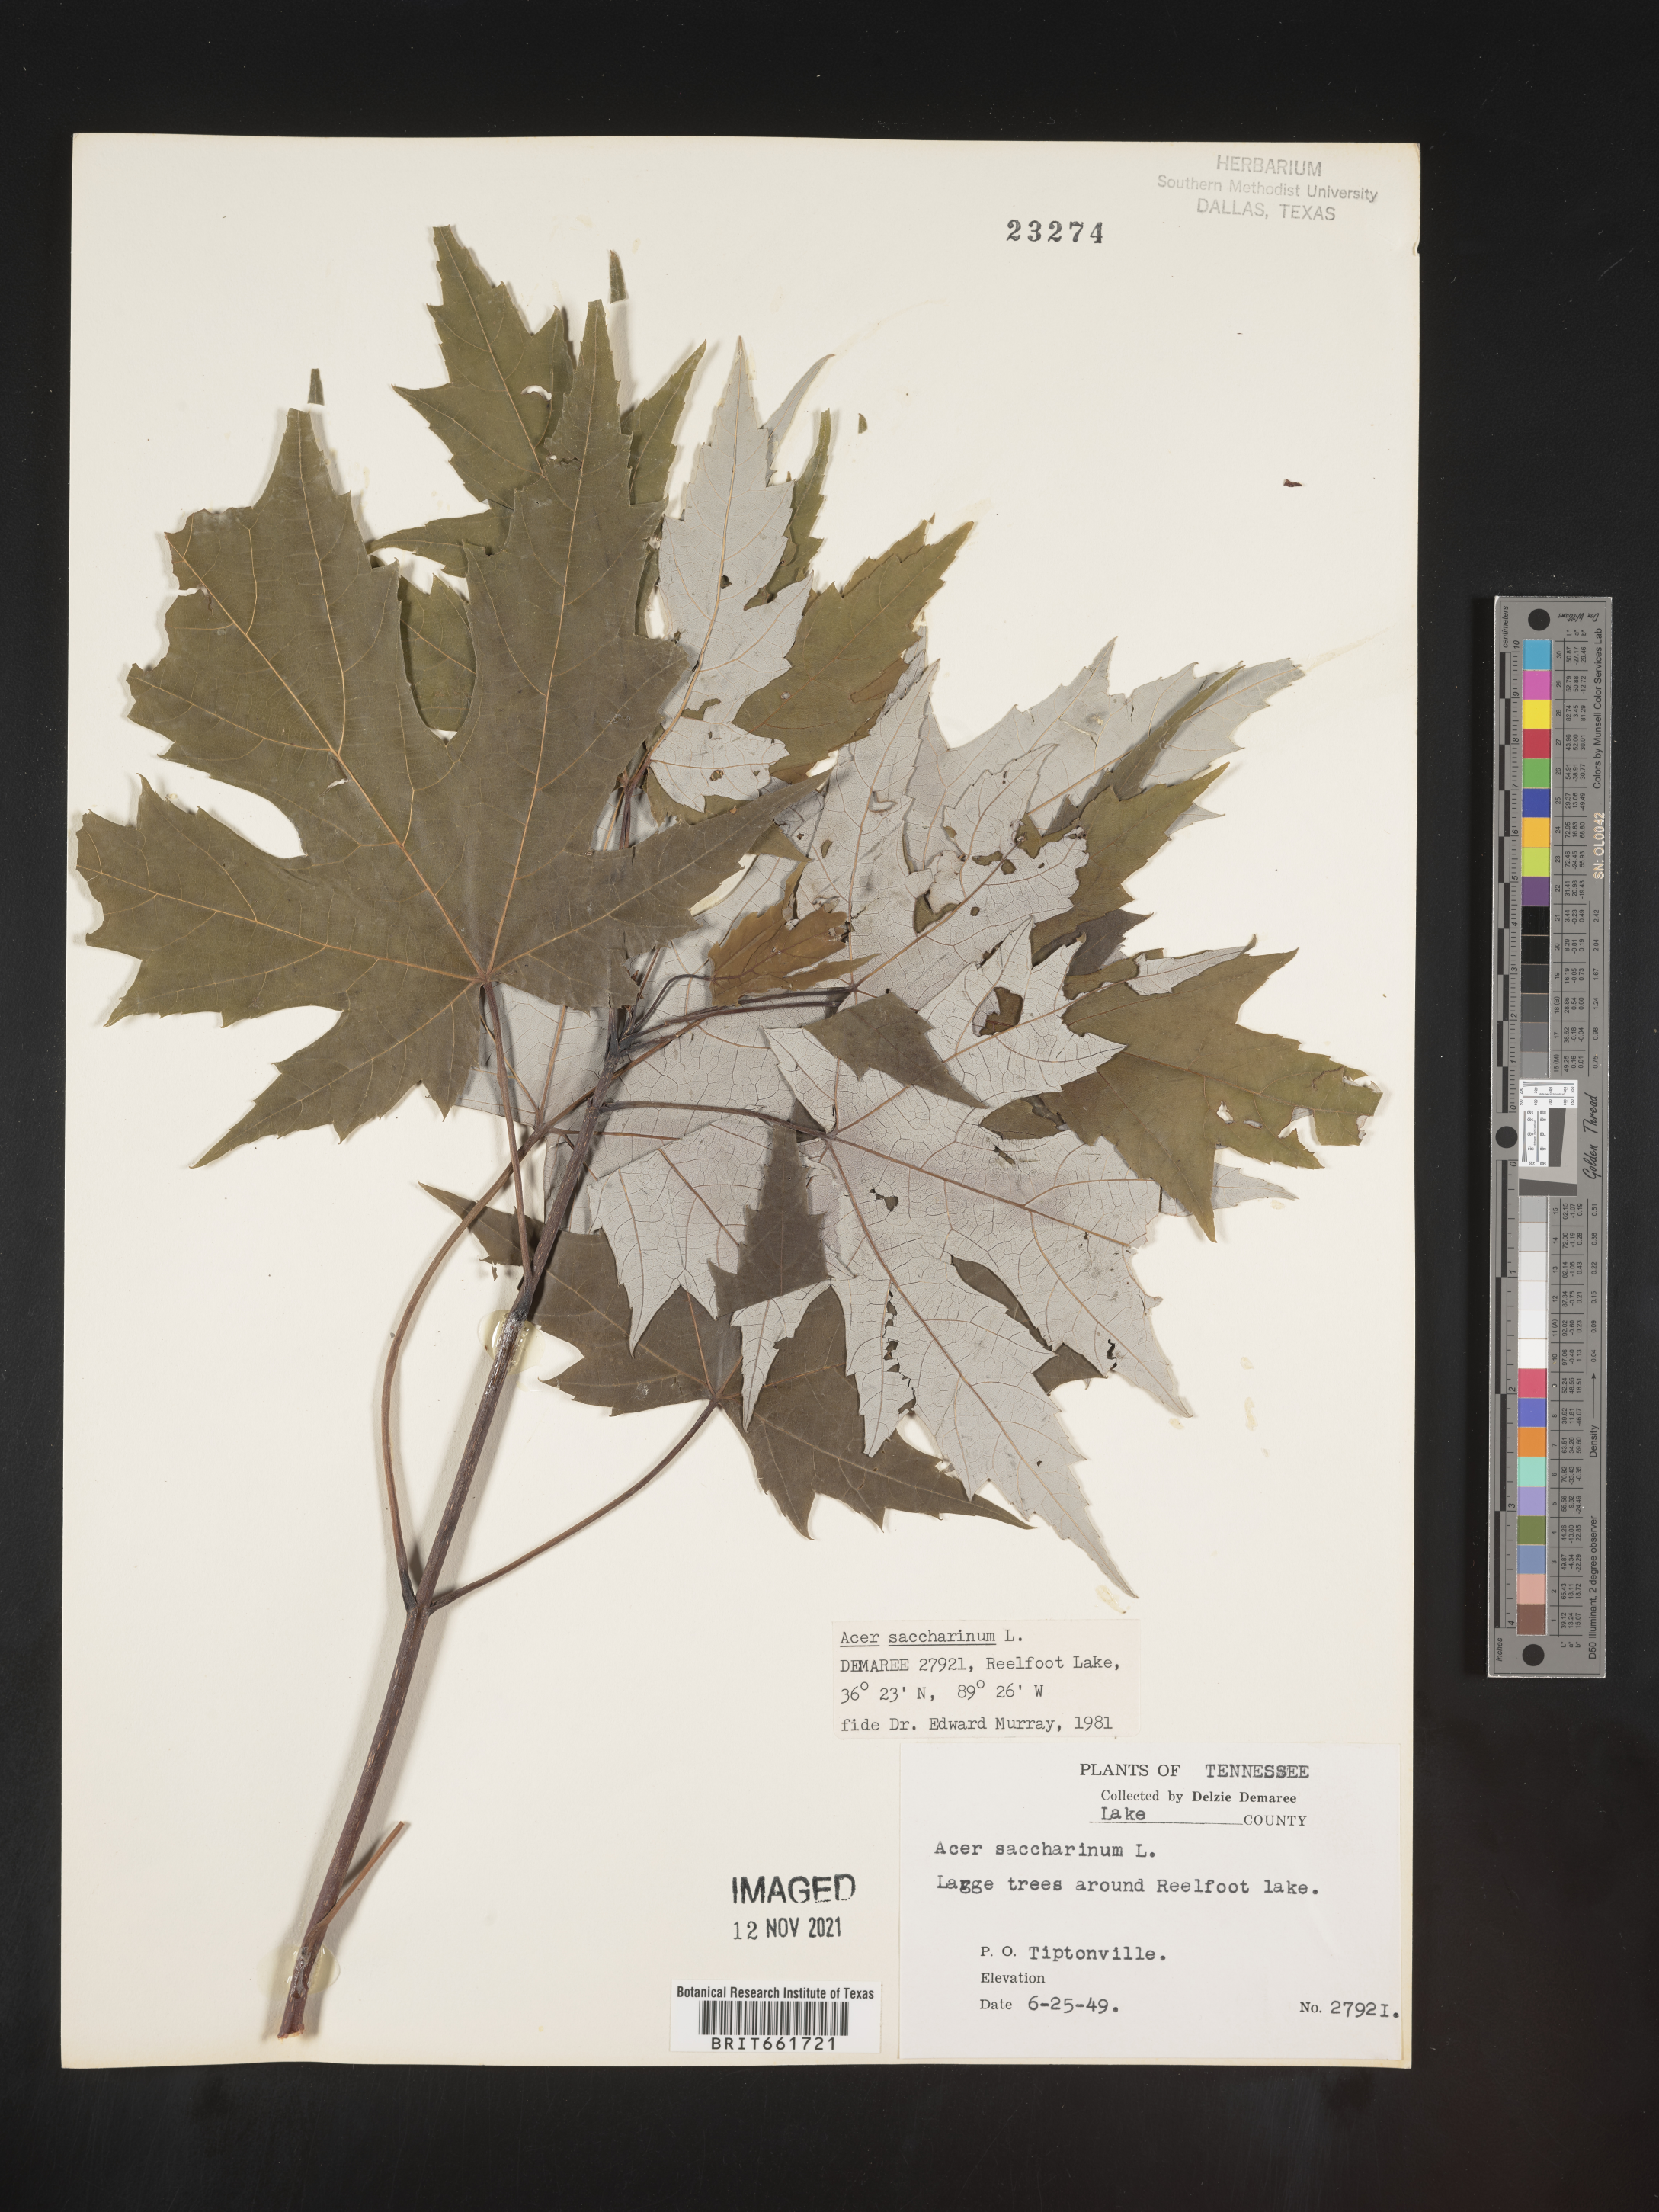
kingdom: Plantae
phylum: Tracheophyta
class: Magnoliopsida
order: Sapindales
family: Sapindaceae
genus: Acer
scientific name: Acer saccharinum
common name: Silver maple
